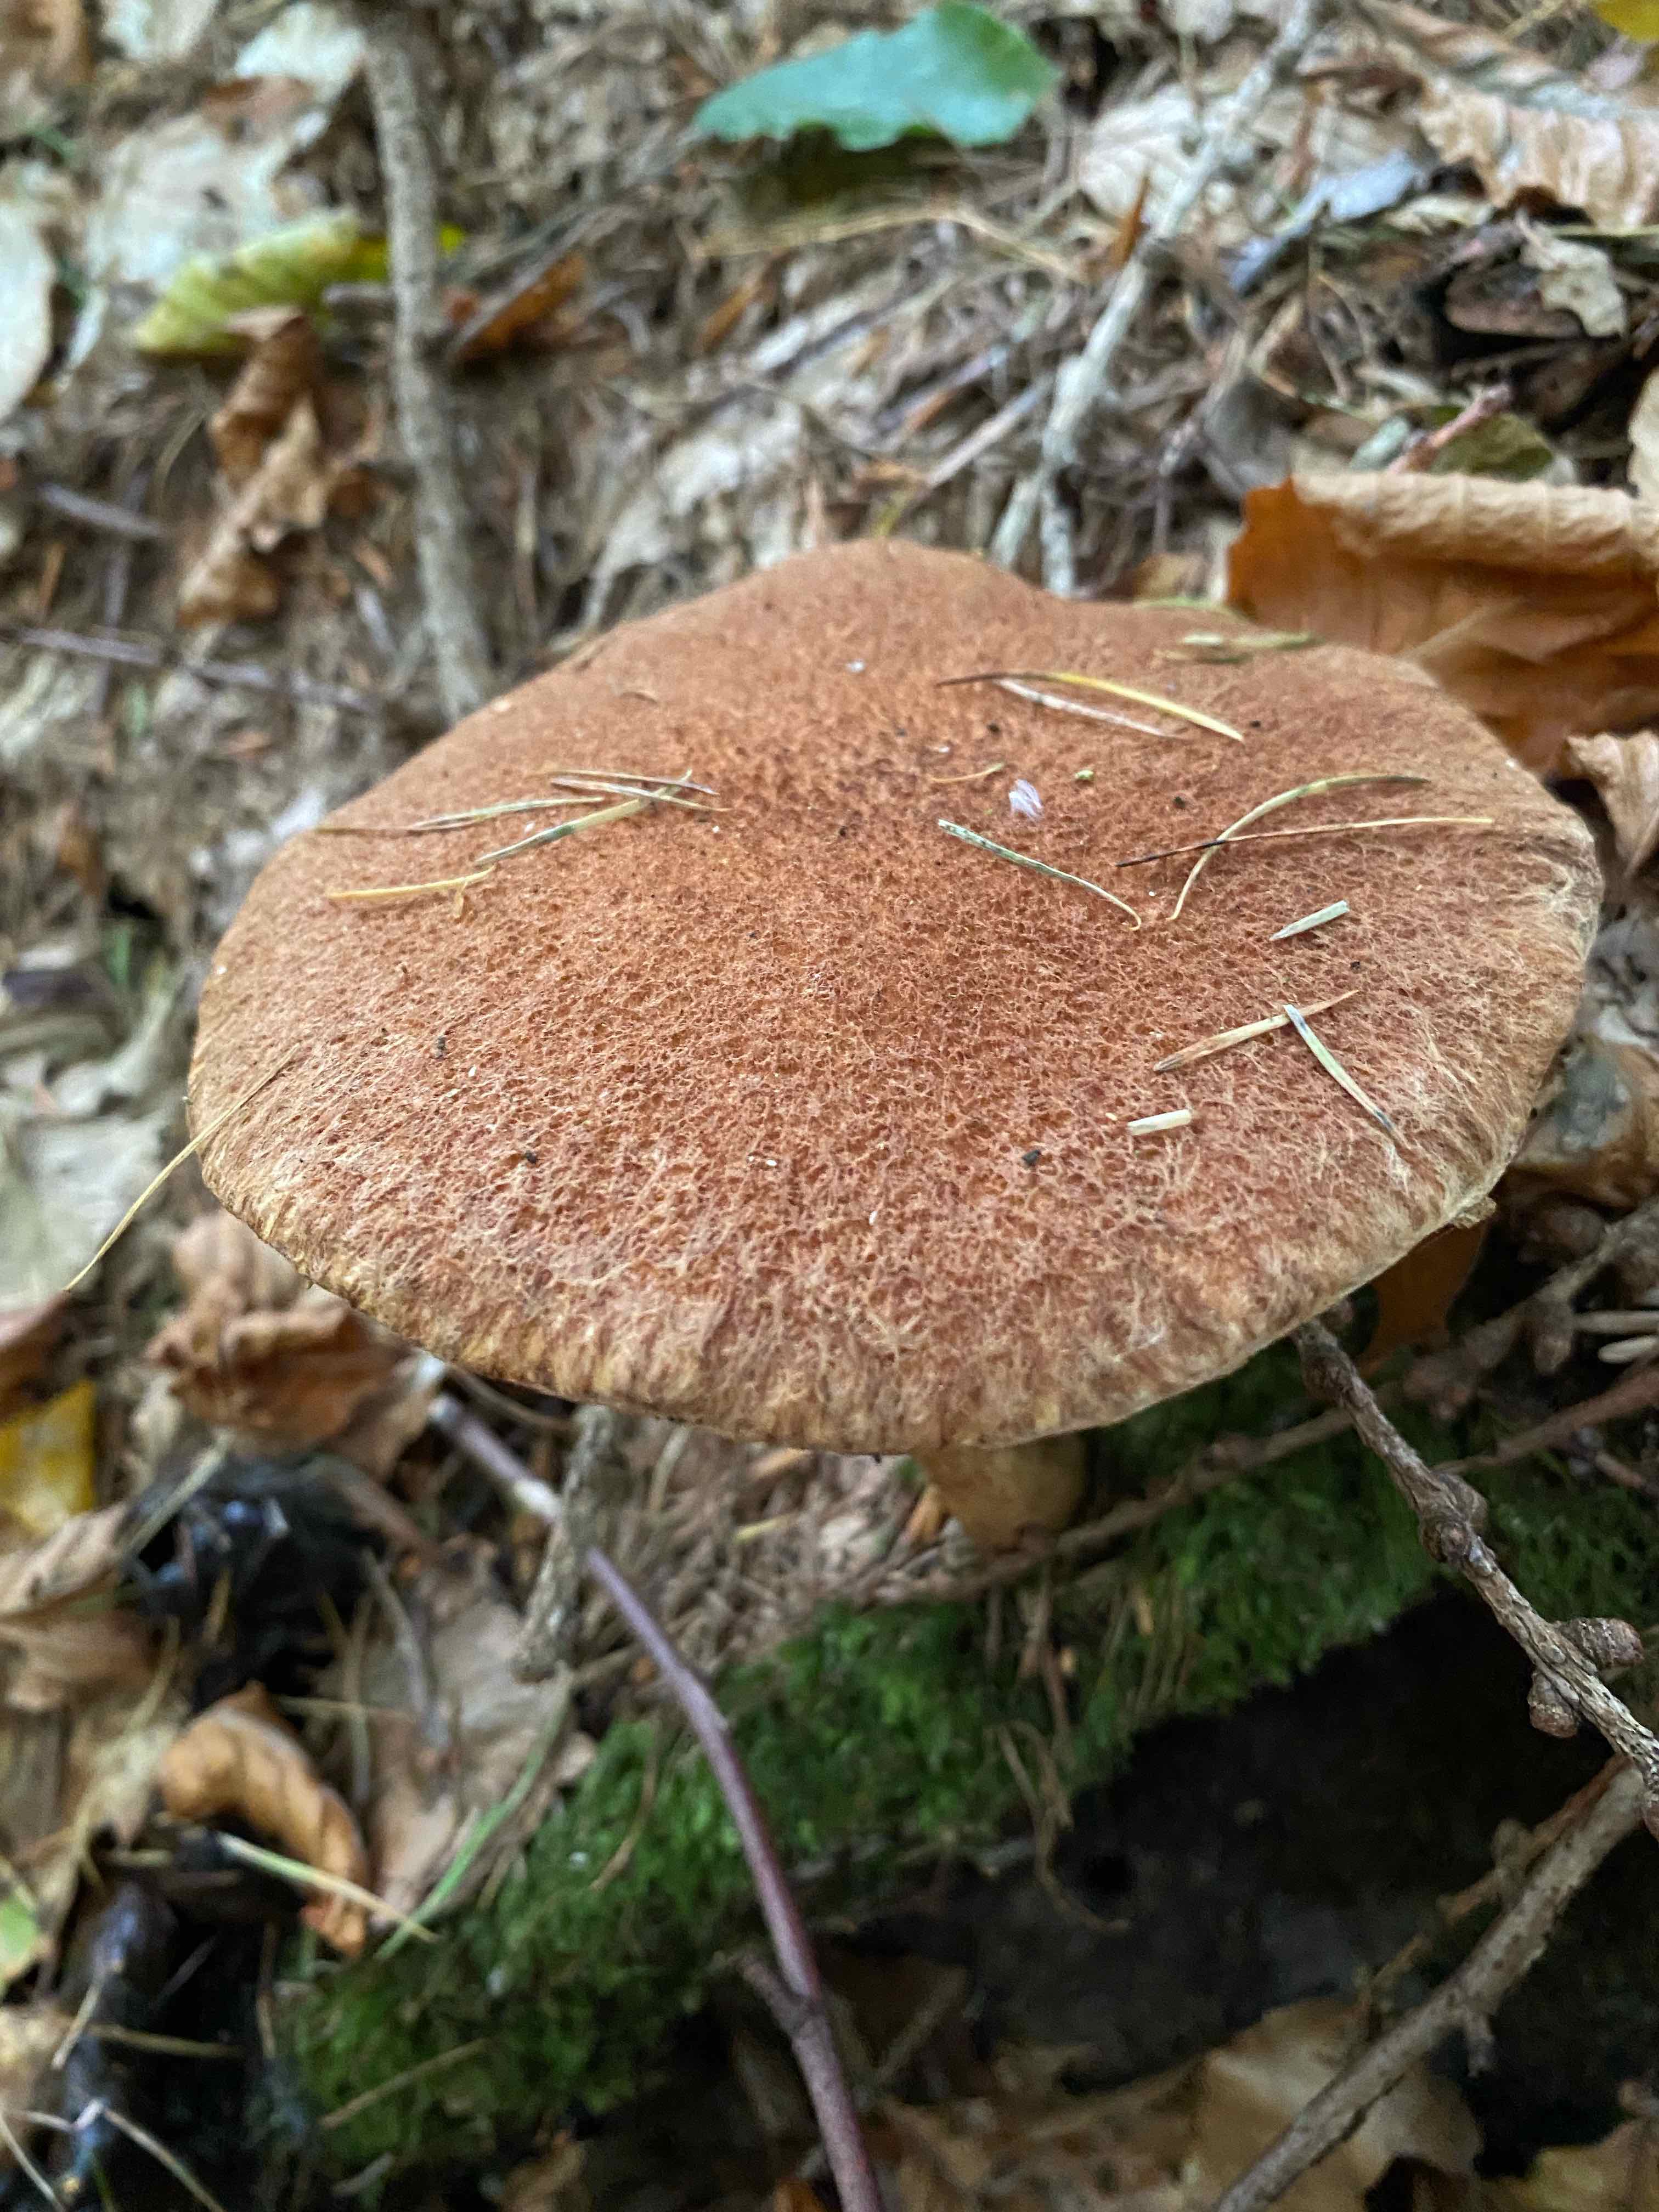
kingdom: Fungi
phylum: Basidiomycota
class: Agaricomycetes
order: Boletales
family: Suillaceae
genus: Suillus
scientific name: Suillus cavipes
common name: hulstokket slimrørhat
